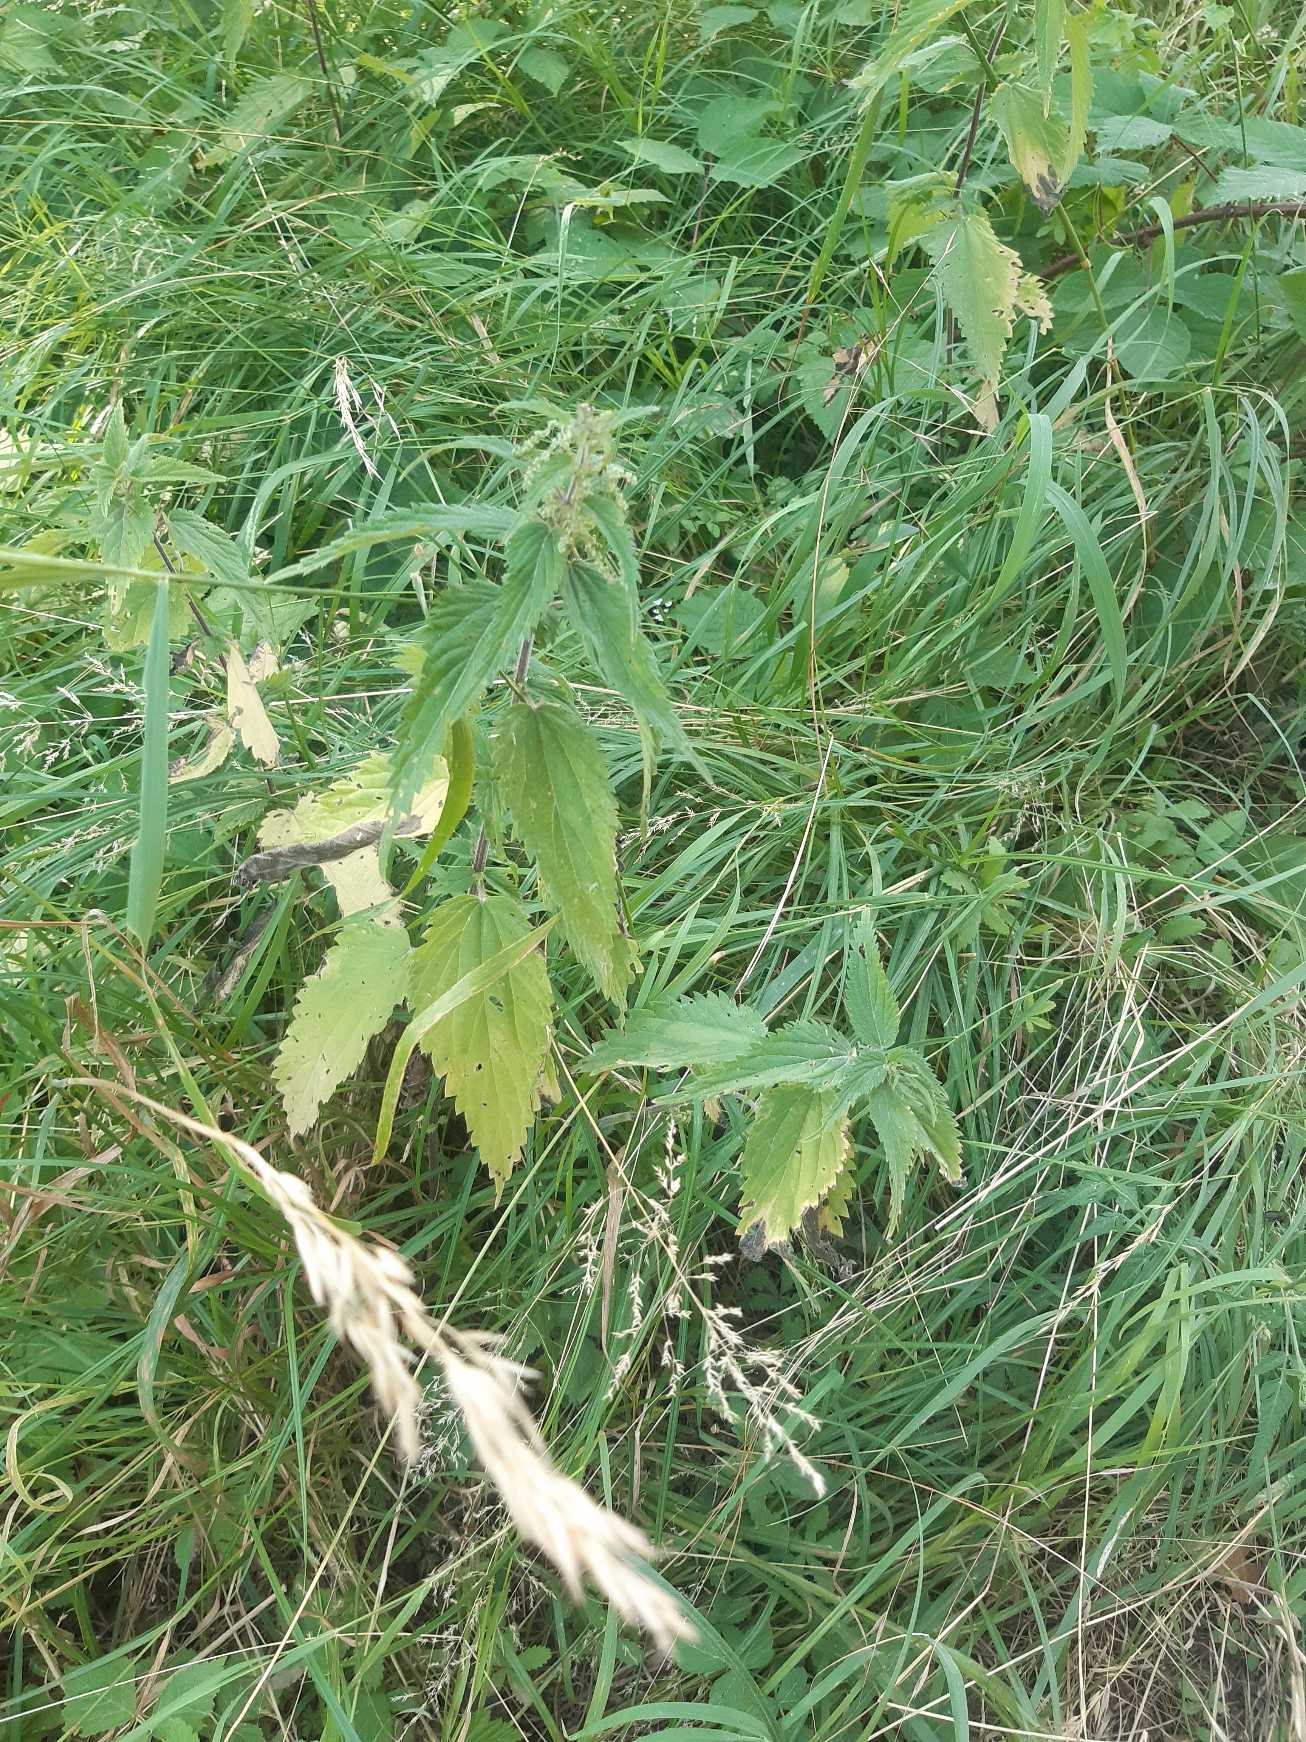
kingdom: Plantae
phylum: Tracheophyta
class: Magnoliopsida
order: Rosales
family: Urticaceae
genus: Urtica
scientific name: Urtica dioica
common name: Stor nælde
